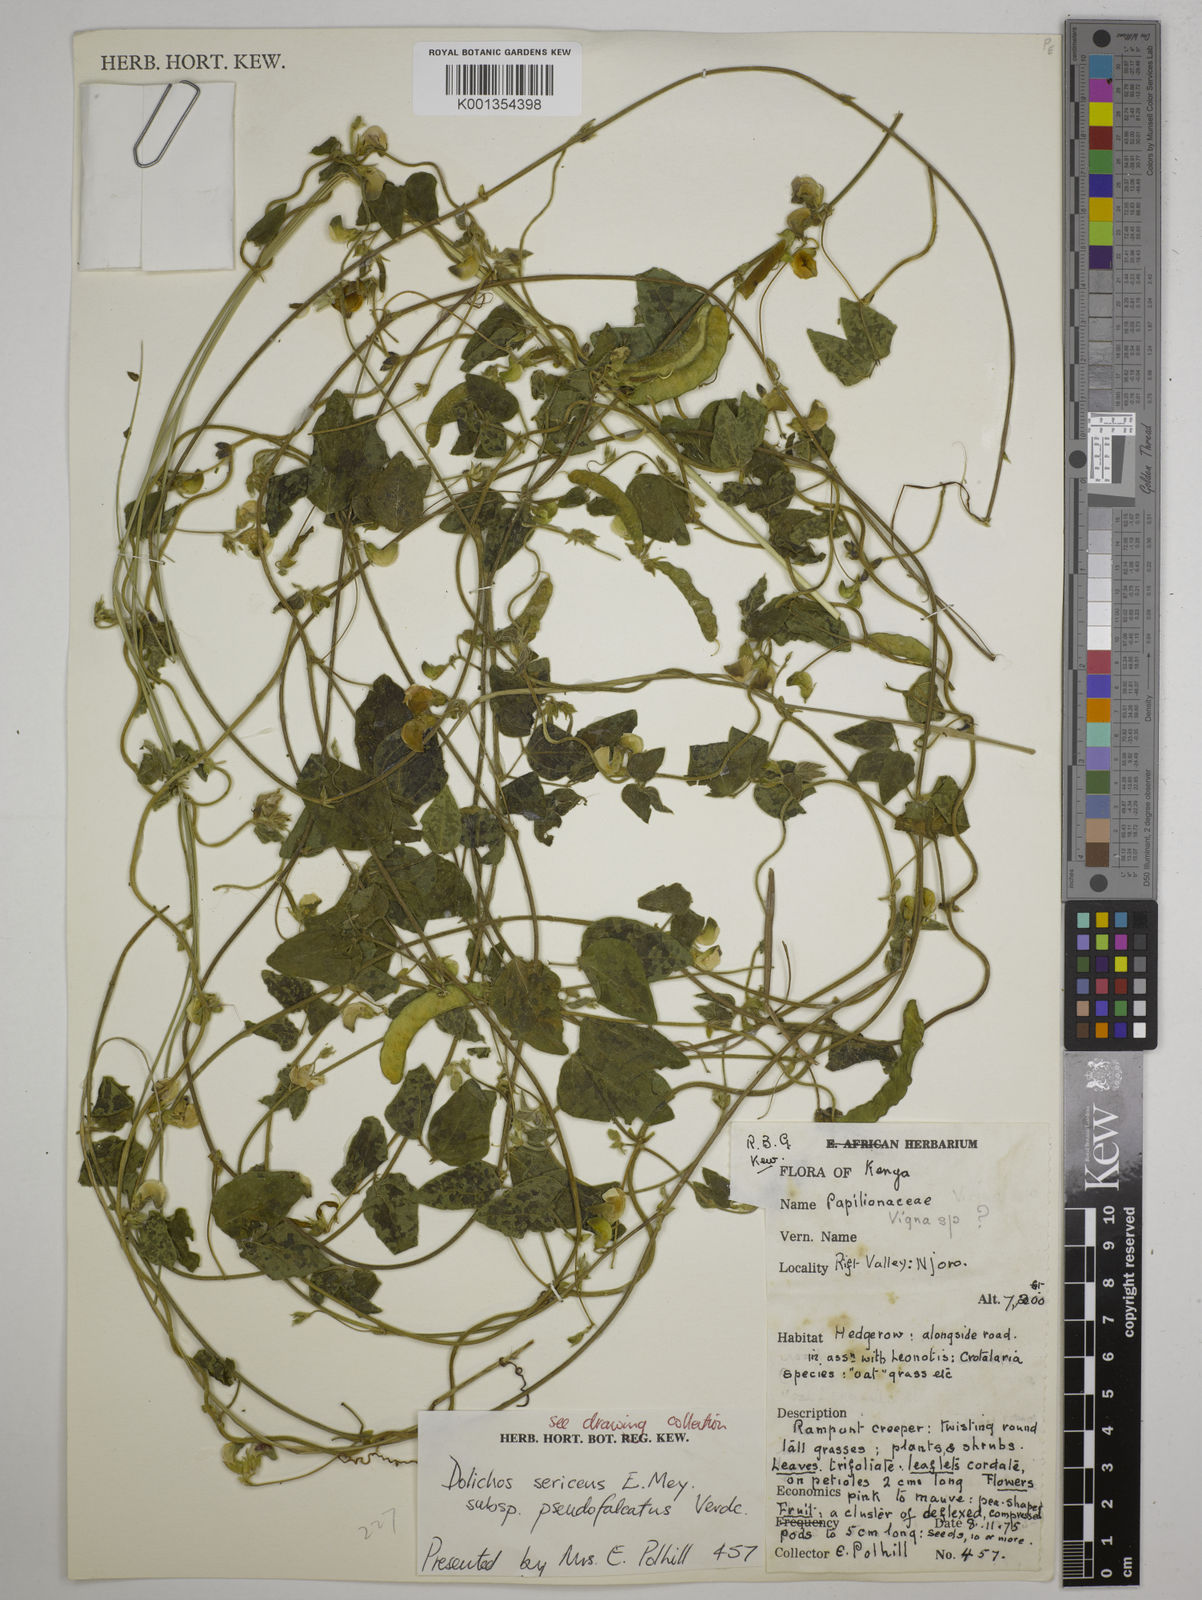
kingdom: Plantae
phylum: Tracheophyta
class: Magnoliopsida
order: Fabales
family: Fabaceae
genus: Dolichos
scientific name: Dolichos
